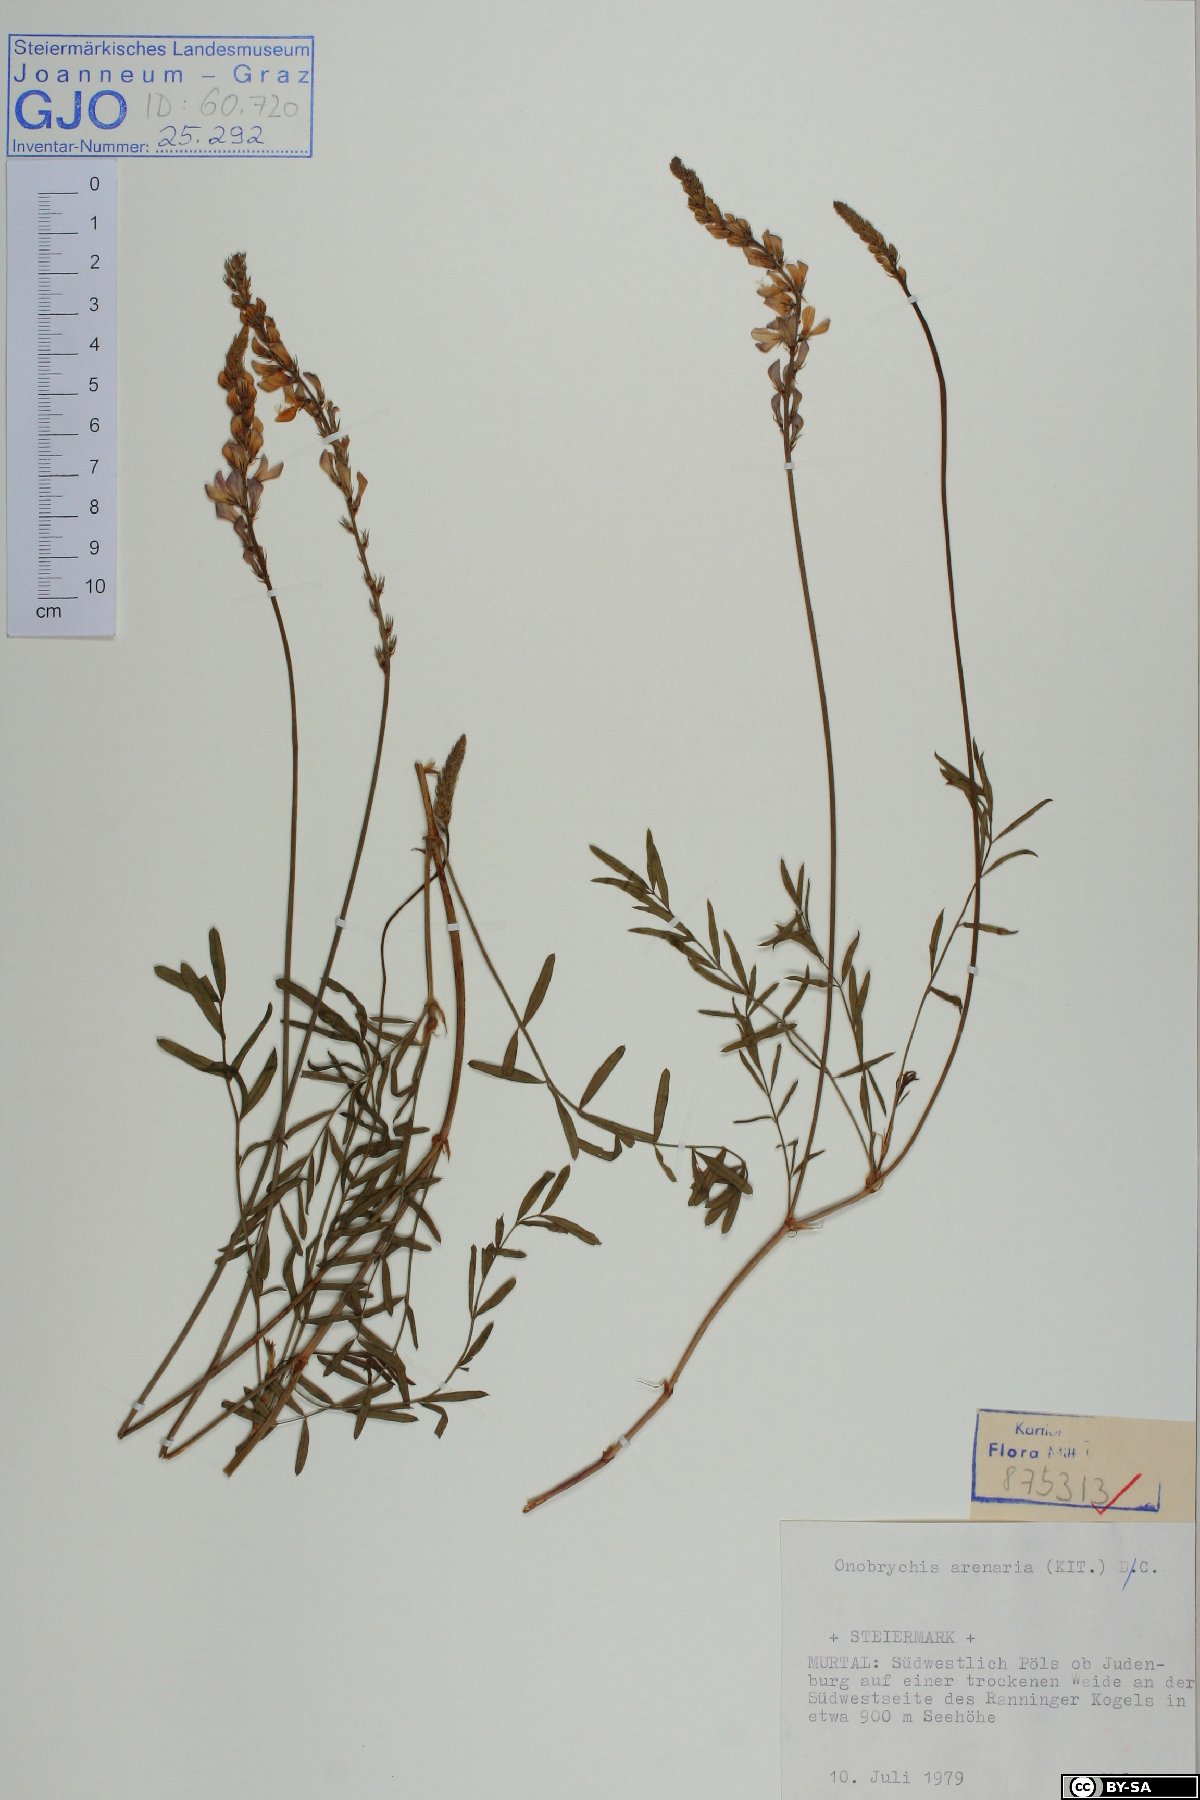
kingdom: Plantae
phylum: Tracheophyta
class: Magnoliopsida
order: Fabales
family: Fabaceae
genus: Onobrychis
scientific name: Onobrychis arenaria
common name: Sand esparcet
